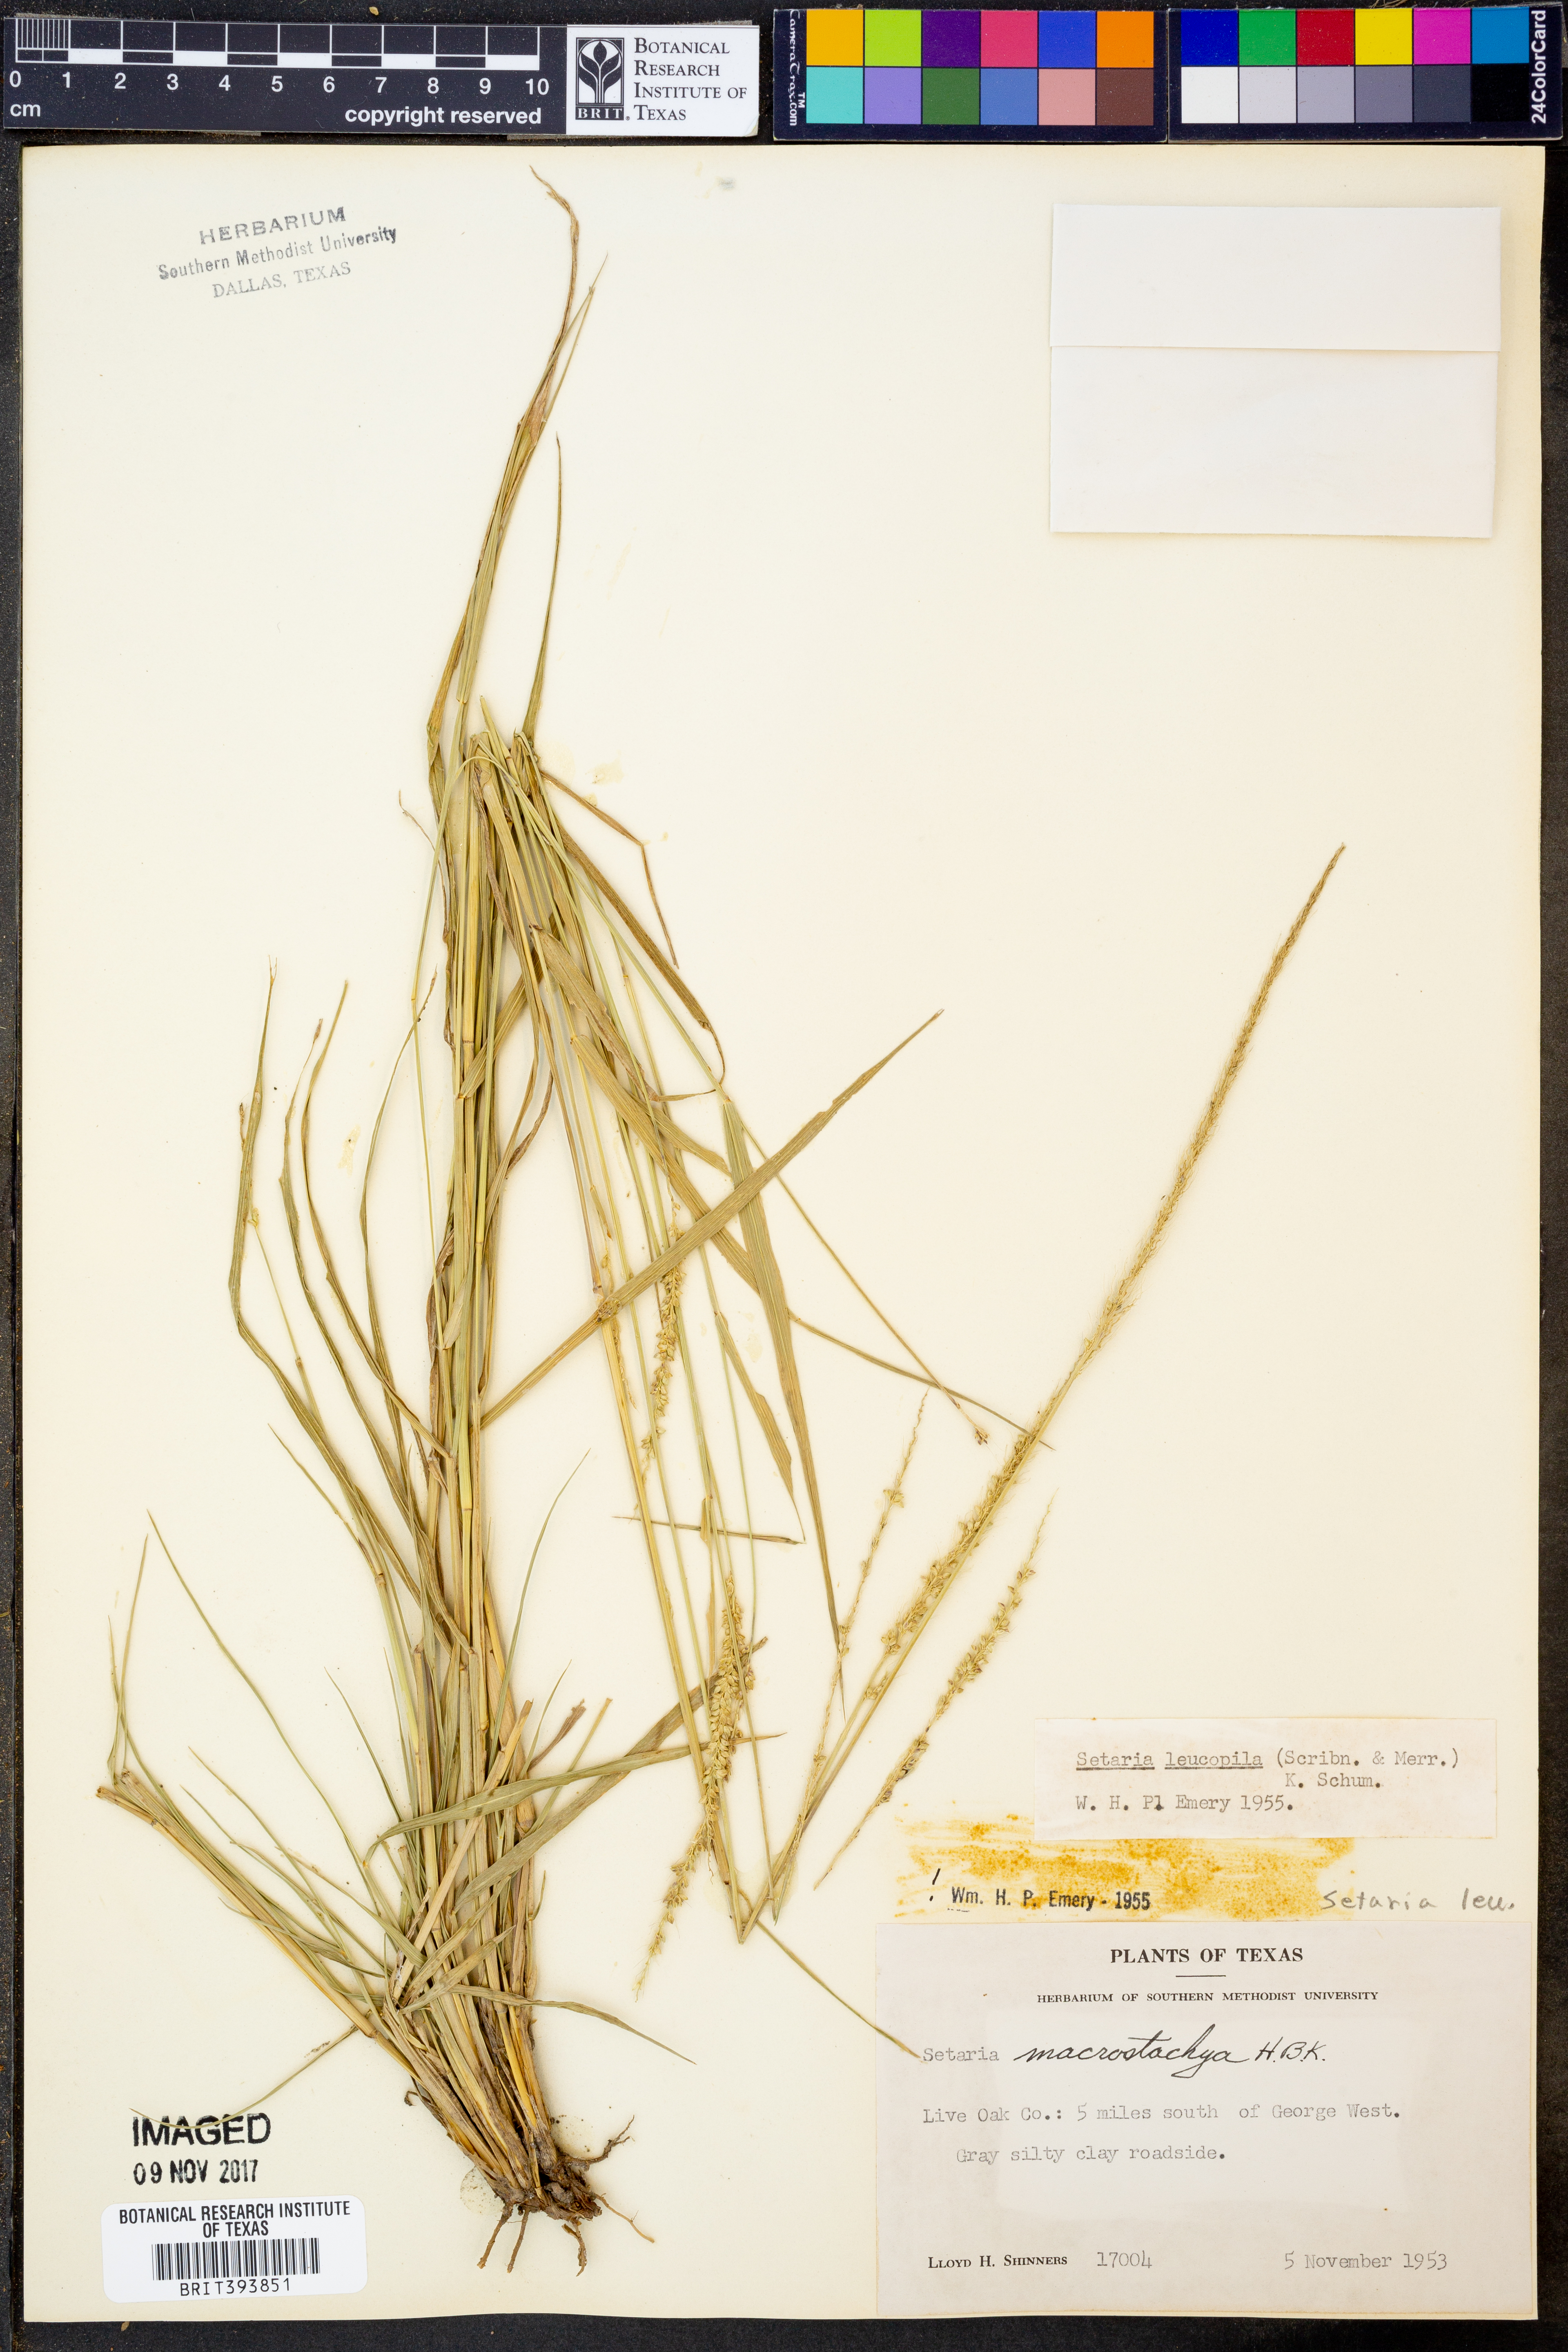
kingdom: Plantae
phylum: Tracheophyta
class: Liliopsida
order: Poales
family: Poaceae
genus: Setaria
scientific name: Setaria leucopila
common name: Plains bristle grass
